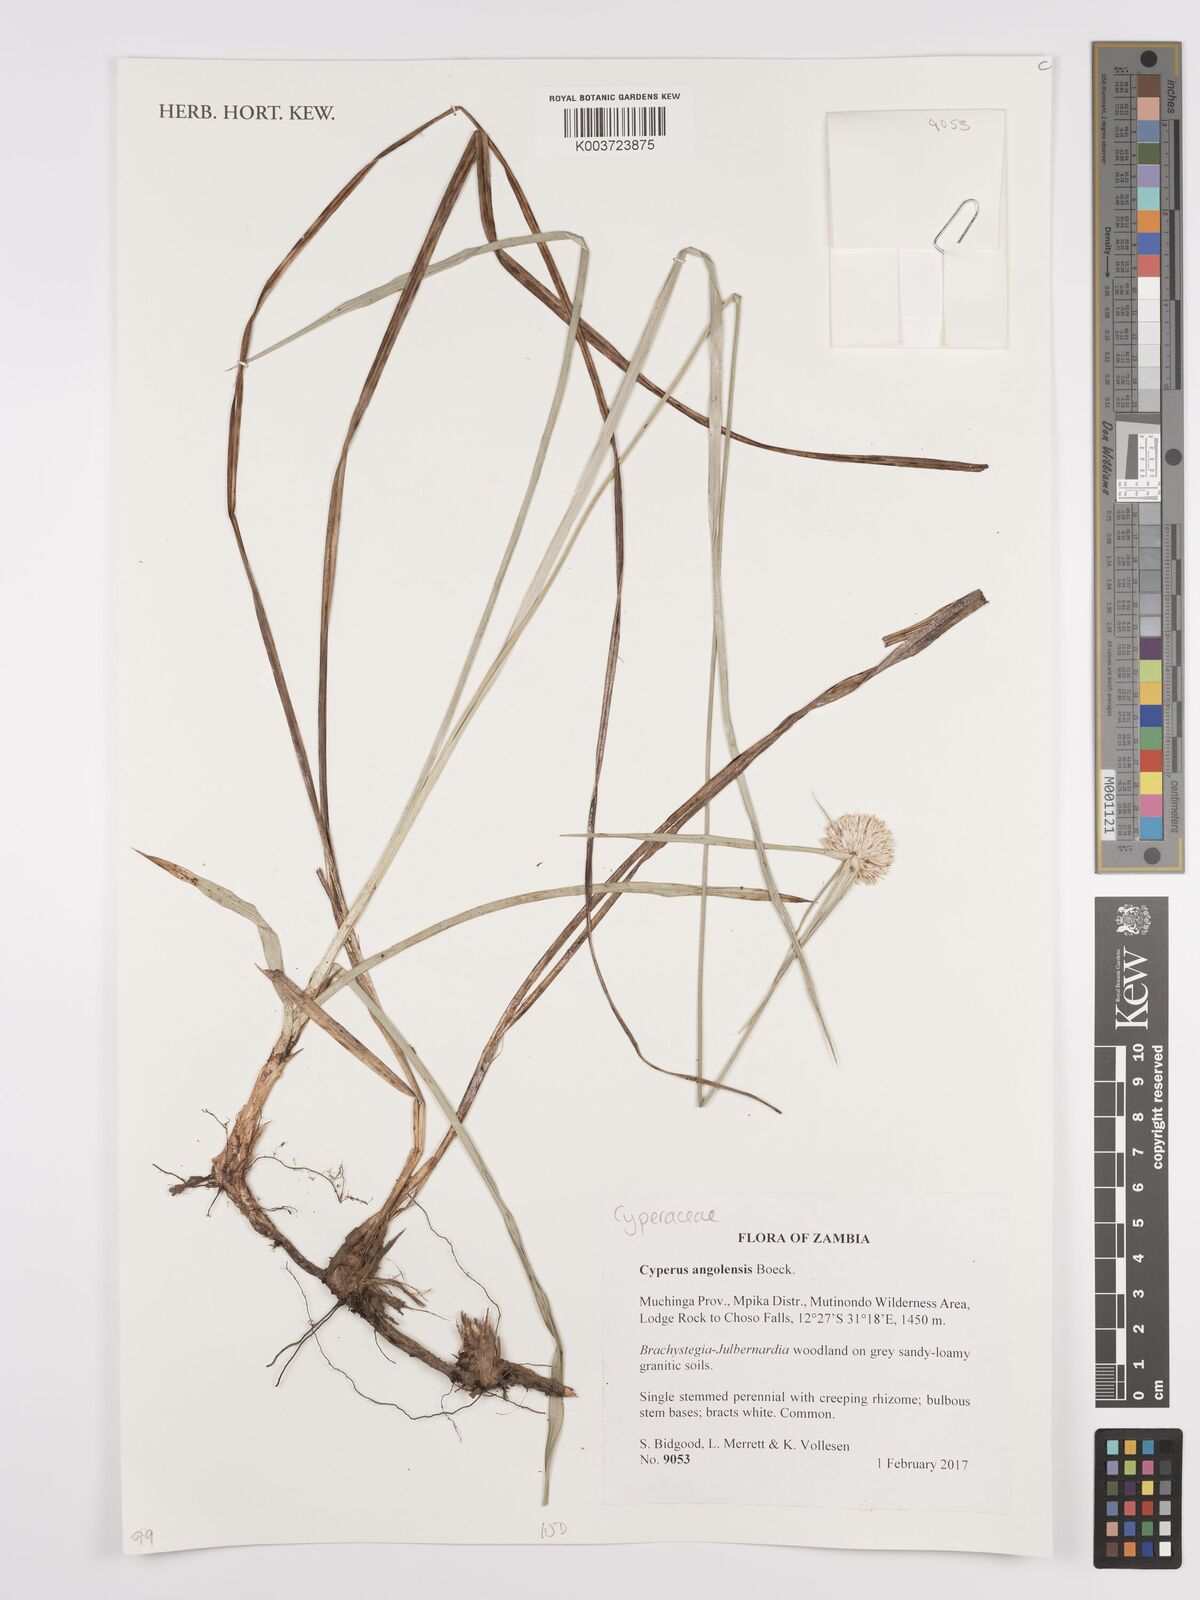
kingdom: Plantae
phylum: Tracheophyta
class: Liliopsida
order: Poales
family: Cyperaceae
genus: Cyperus
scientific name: Cyperus angolensis
